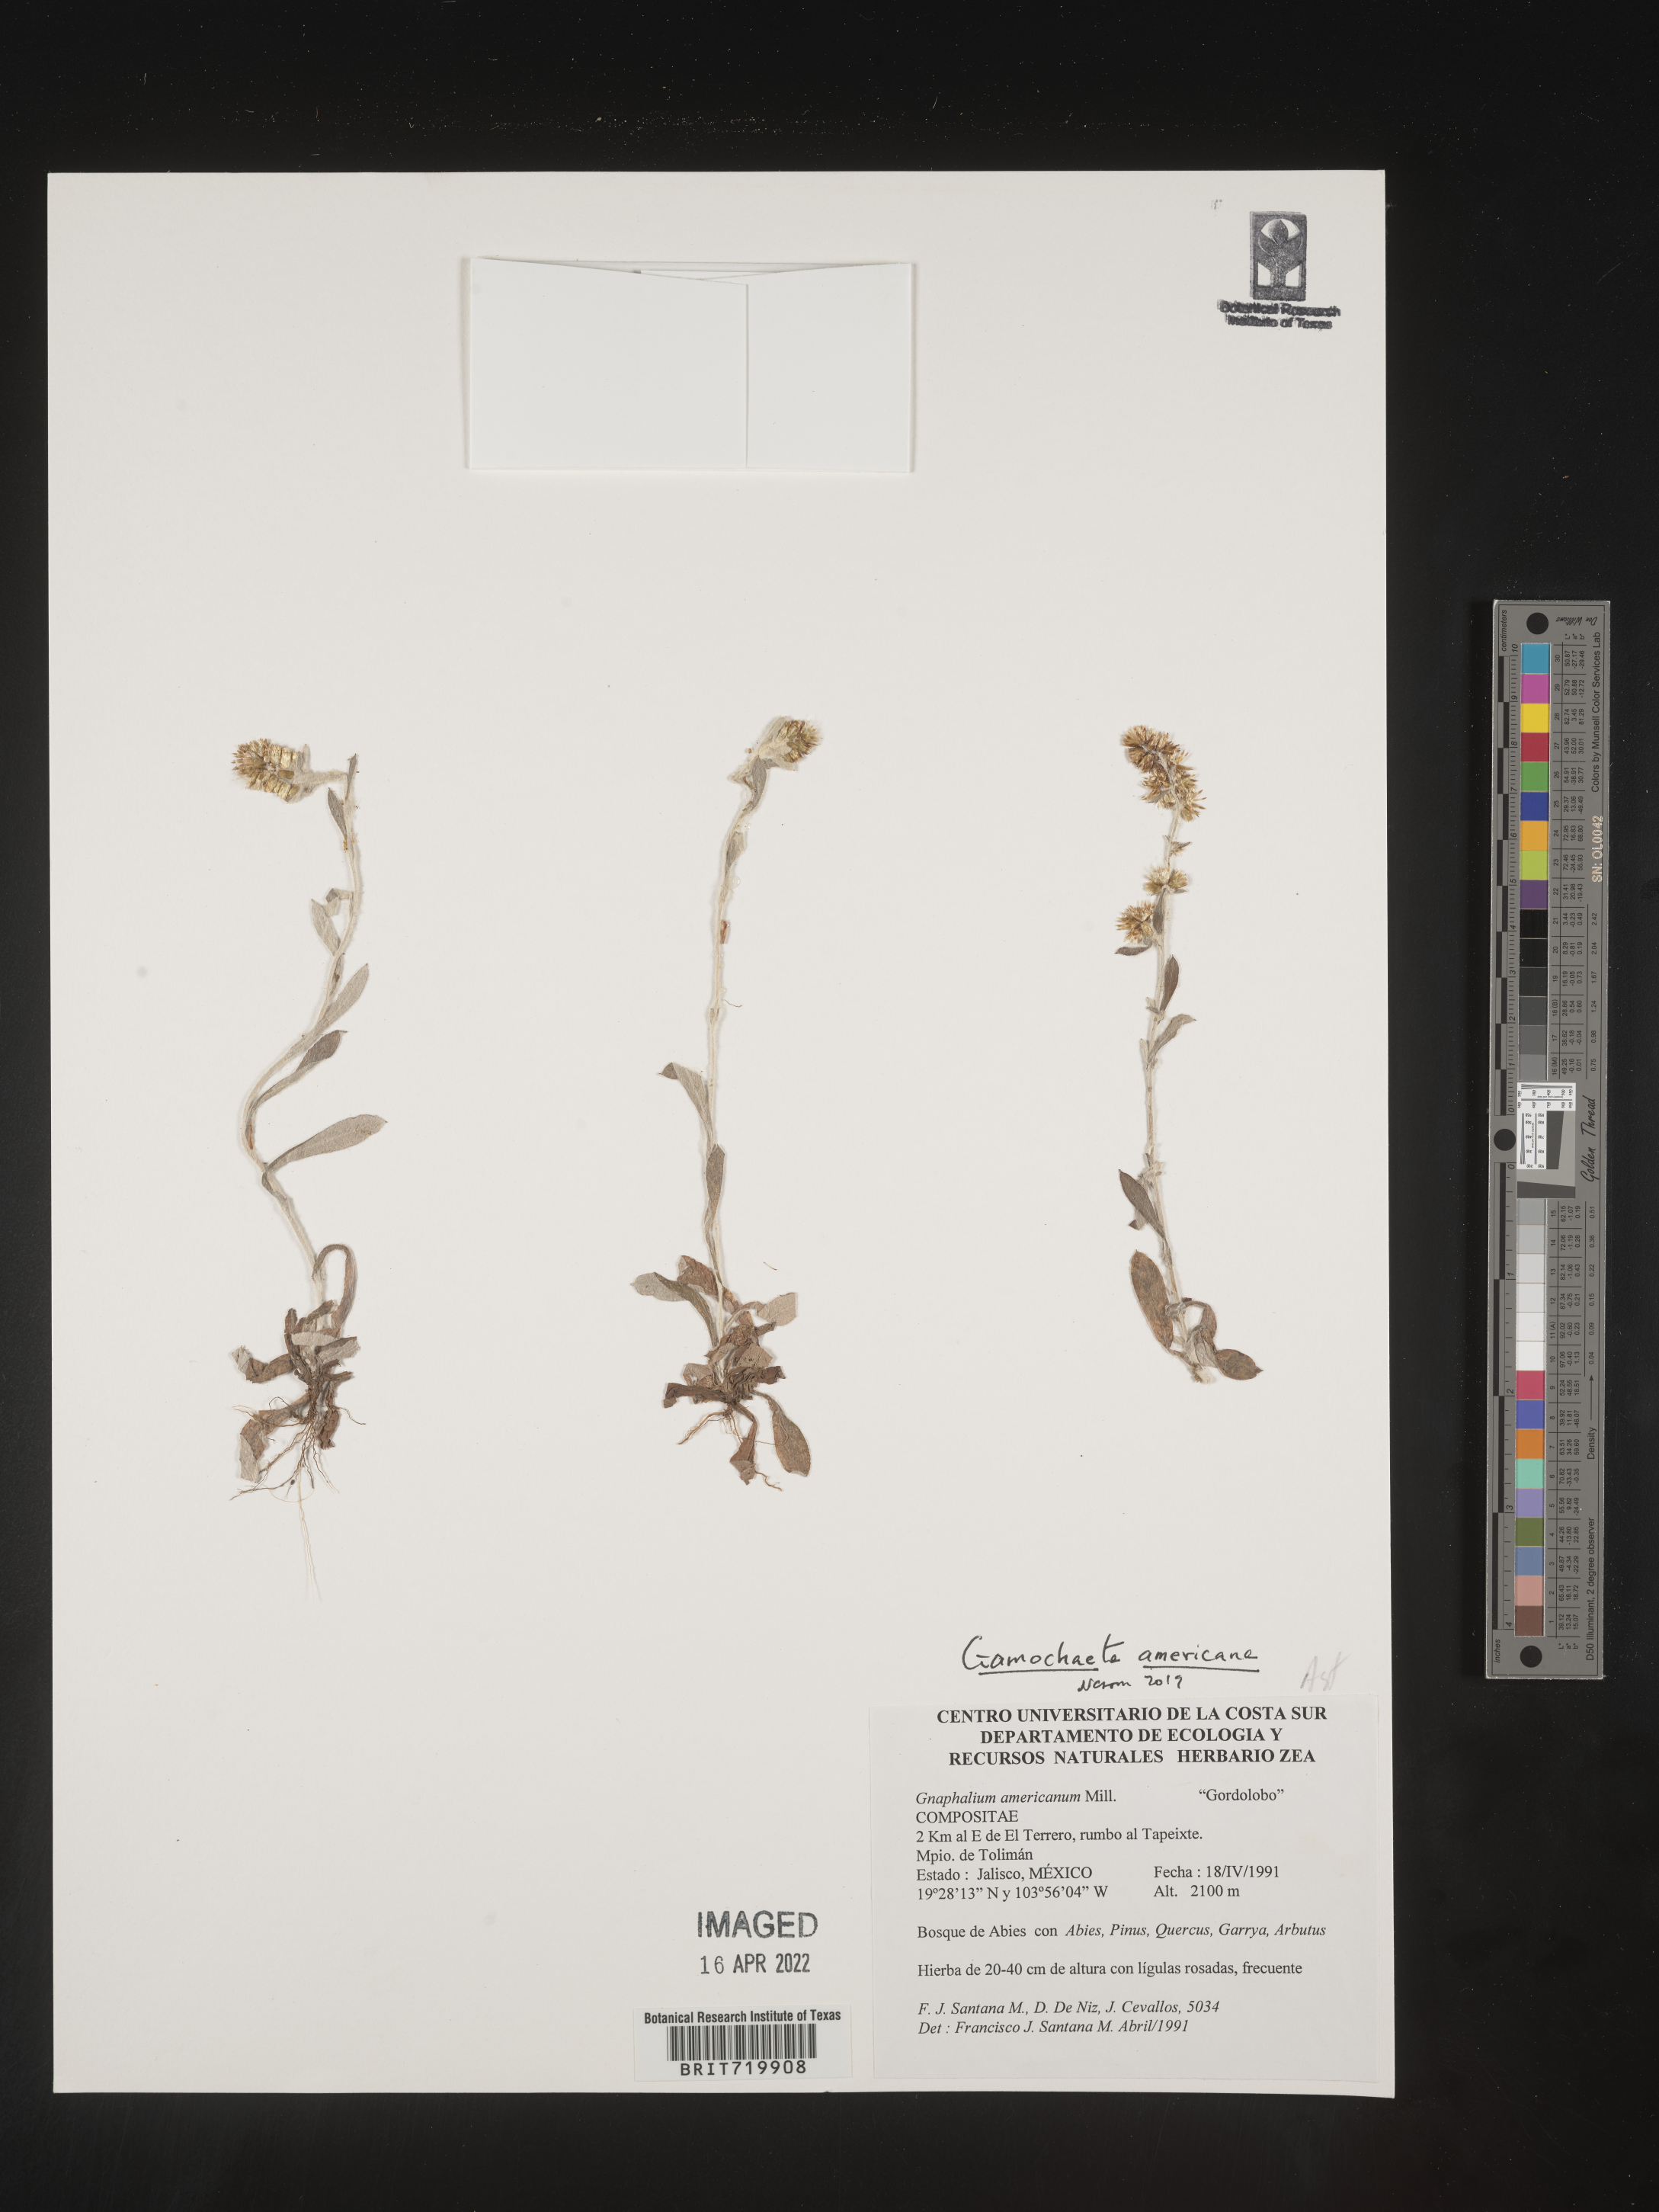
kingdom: Plantae
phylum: Tracheophyta
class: Magnoliopsida
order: Asterales
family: Asteraceae
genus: Gamochaeta
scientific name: Gamochaeta
